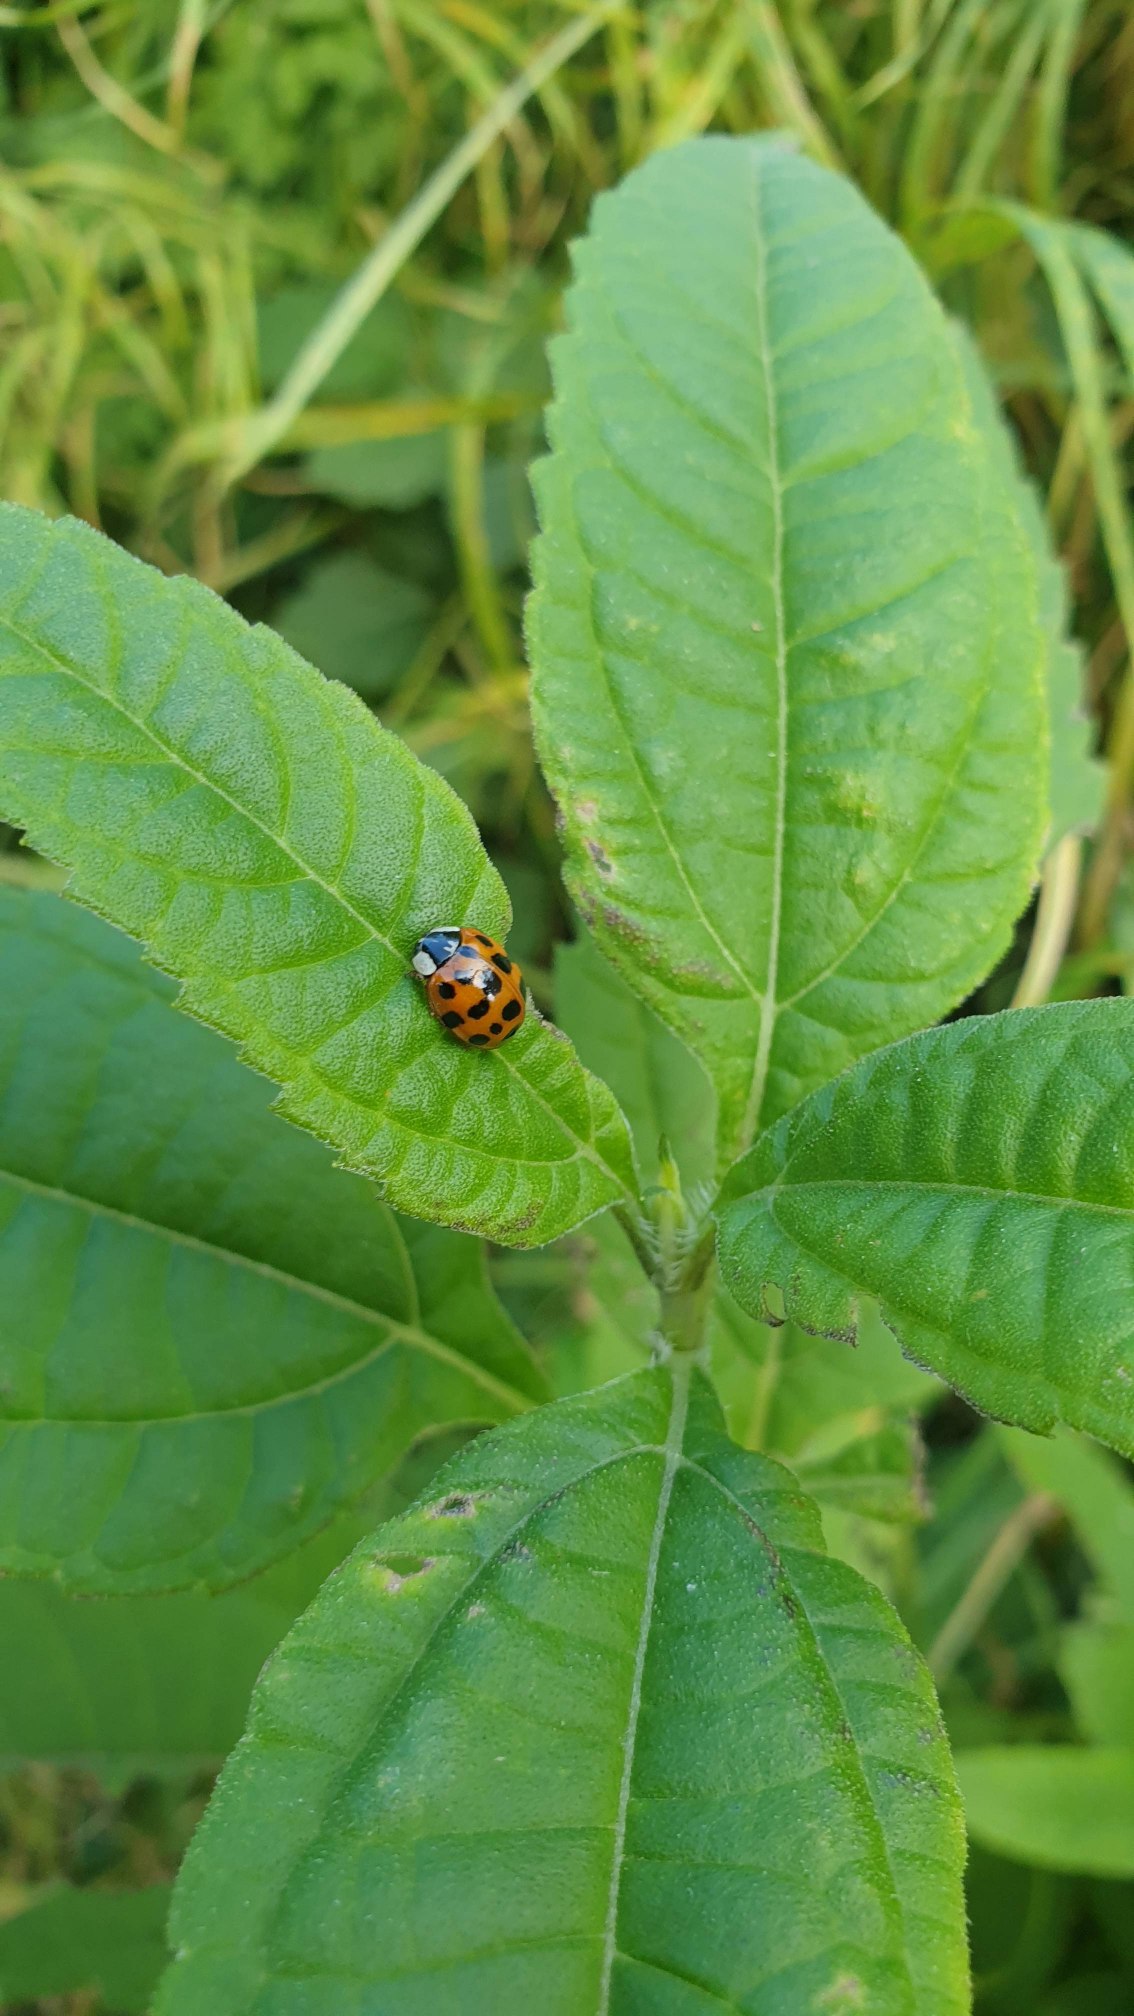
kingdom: Animalia
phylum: Arthropoda
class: Insecta
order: Coleoptera
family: Coccinellidae
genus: Harmonia
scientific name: Harmonia axyridis
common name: Harlekinmariehøne
